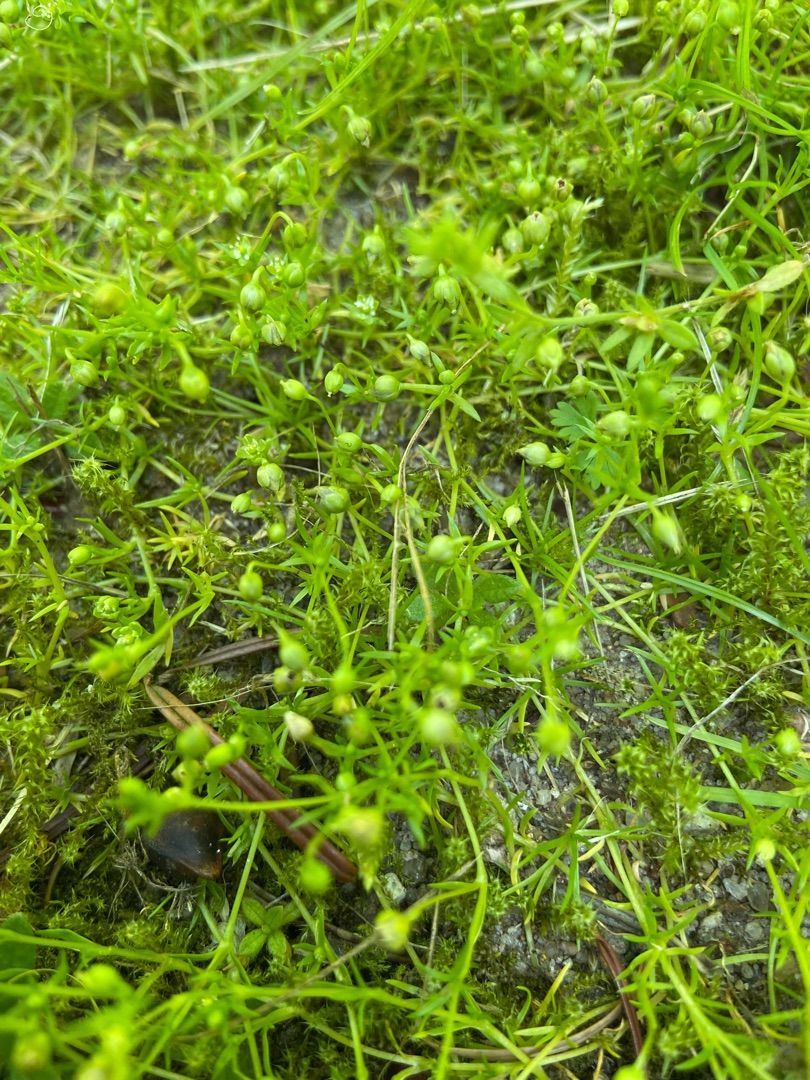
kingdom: Plantae
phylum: Tracheophyta
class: Magnoliopsida
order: Caryophyllales
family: Caryophyllaceae
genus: Sagina
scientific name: Sagina procumbens
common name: Almindelig firling
